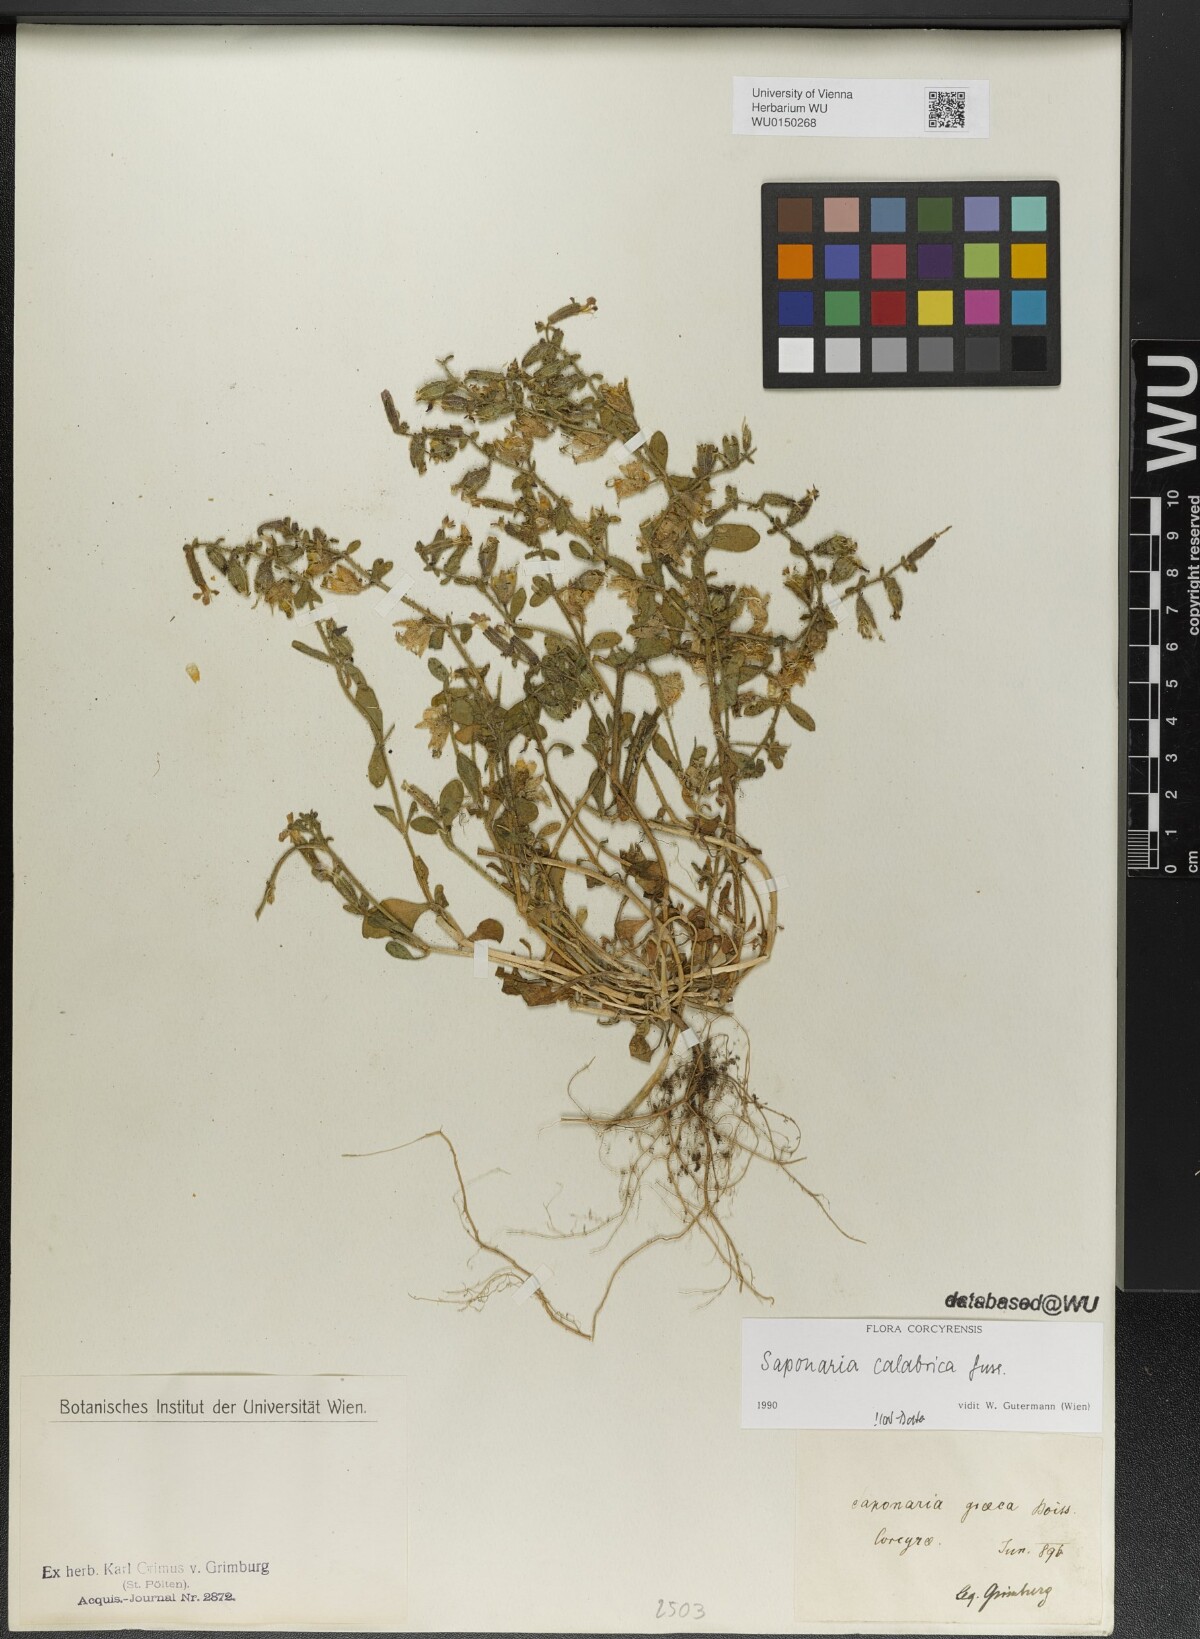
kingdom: Plantae
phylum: Tracheophyta
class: Magnoliopsida
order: Caryophyllales
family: Caryophyllaceae
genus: Saponaria
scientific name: Saponaria calabrica
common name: Adriatic soapwort
